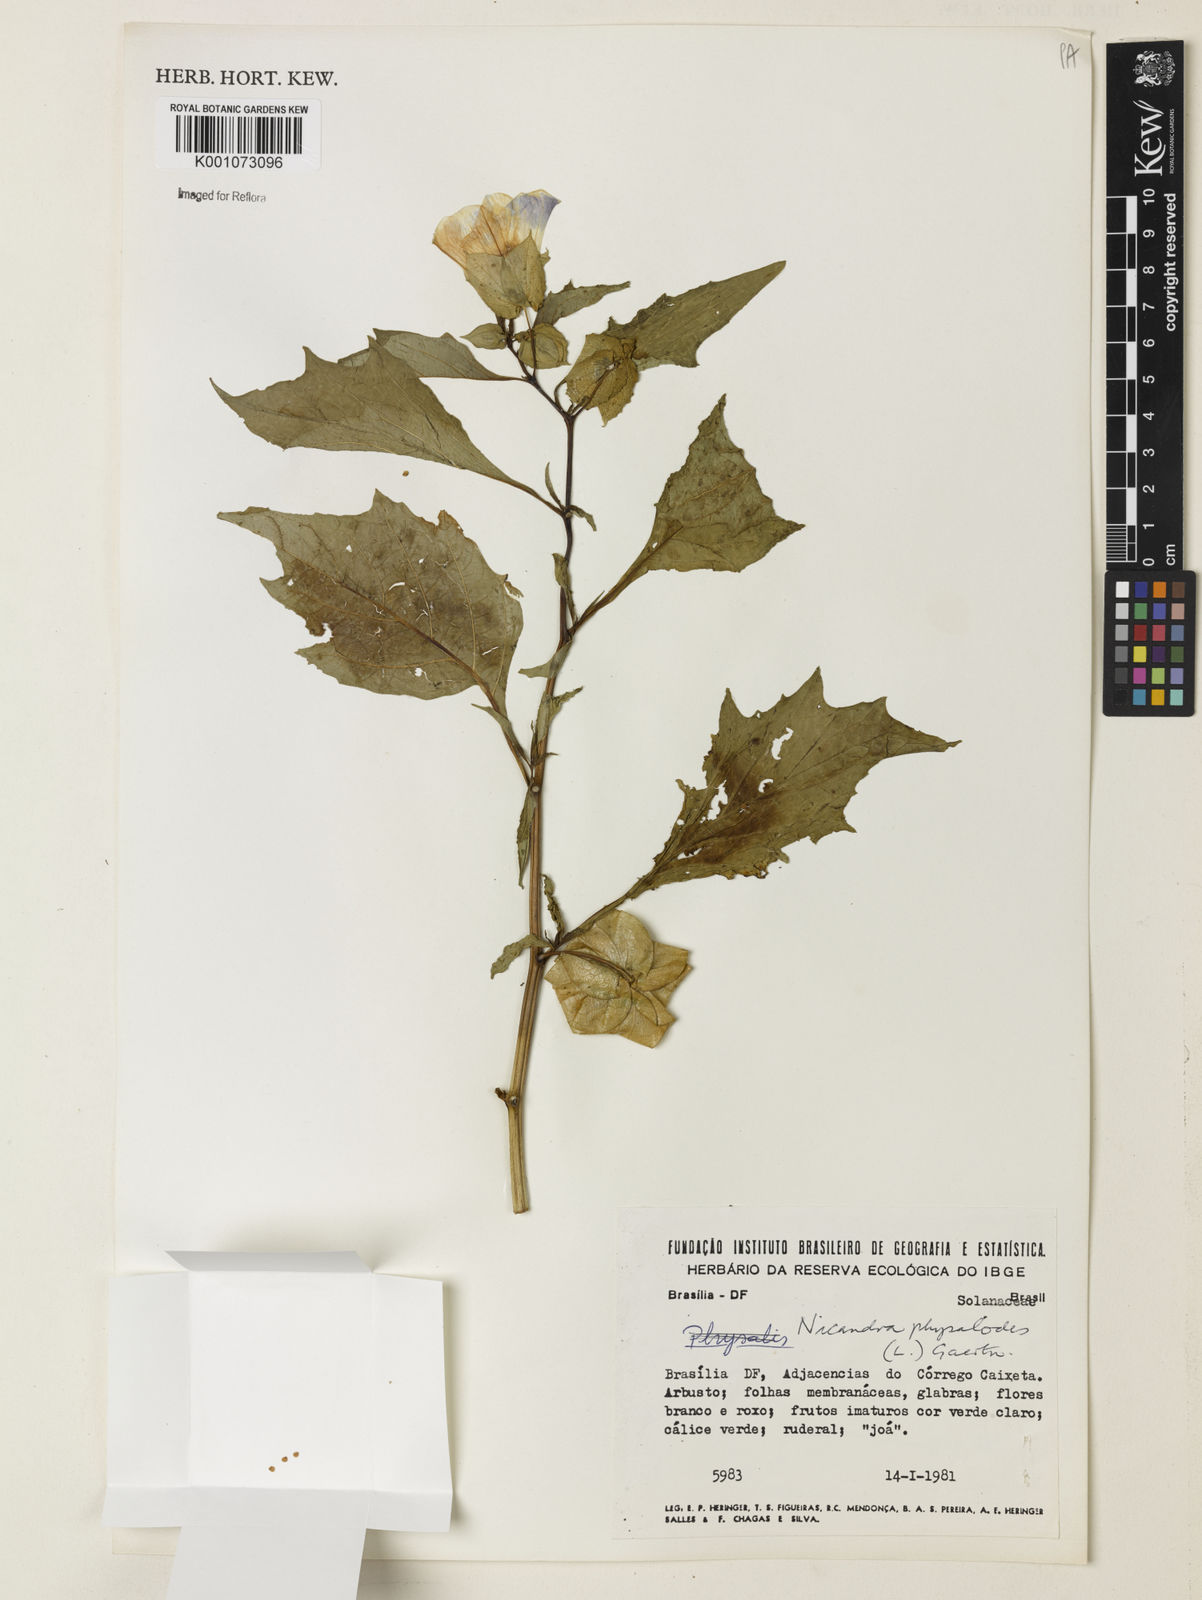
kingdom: Plantae
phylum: Tracheophyta
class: Magnoliopsida
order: Solanales
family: Solanaceae
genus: Nicandra
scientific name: Nicandra
